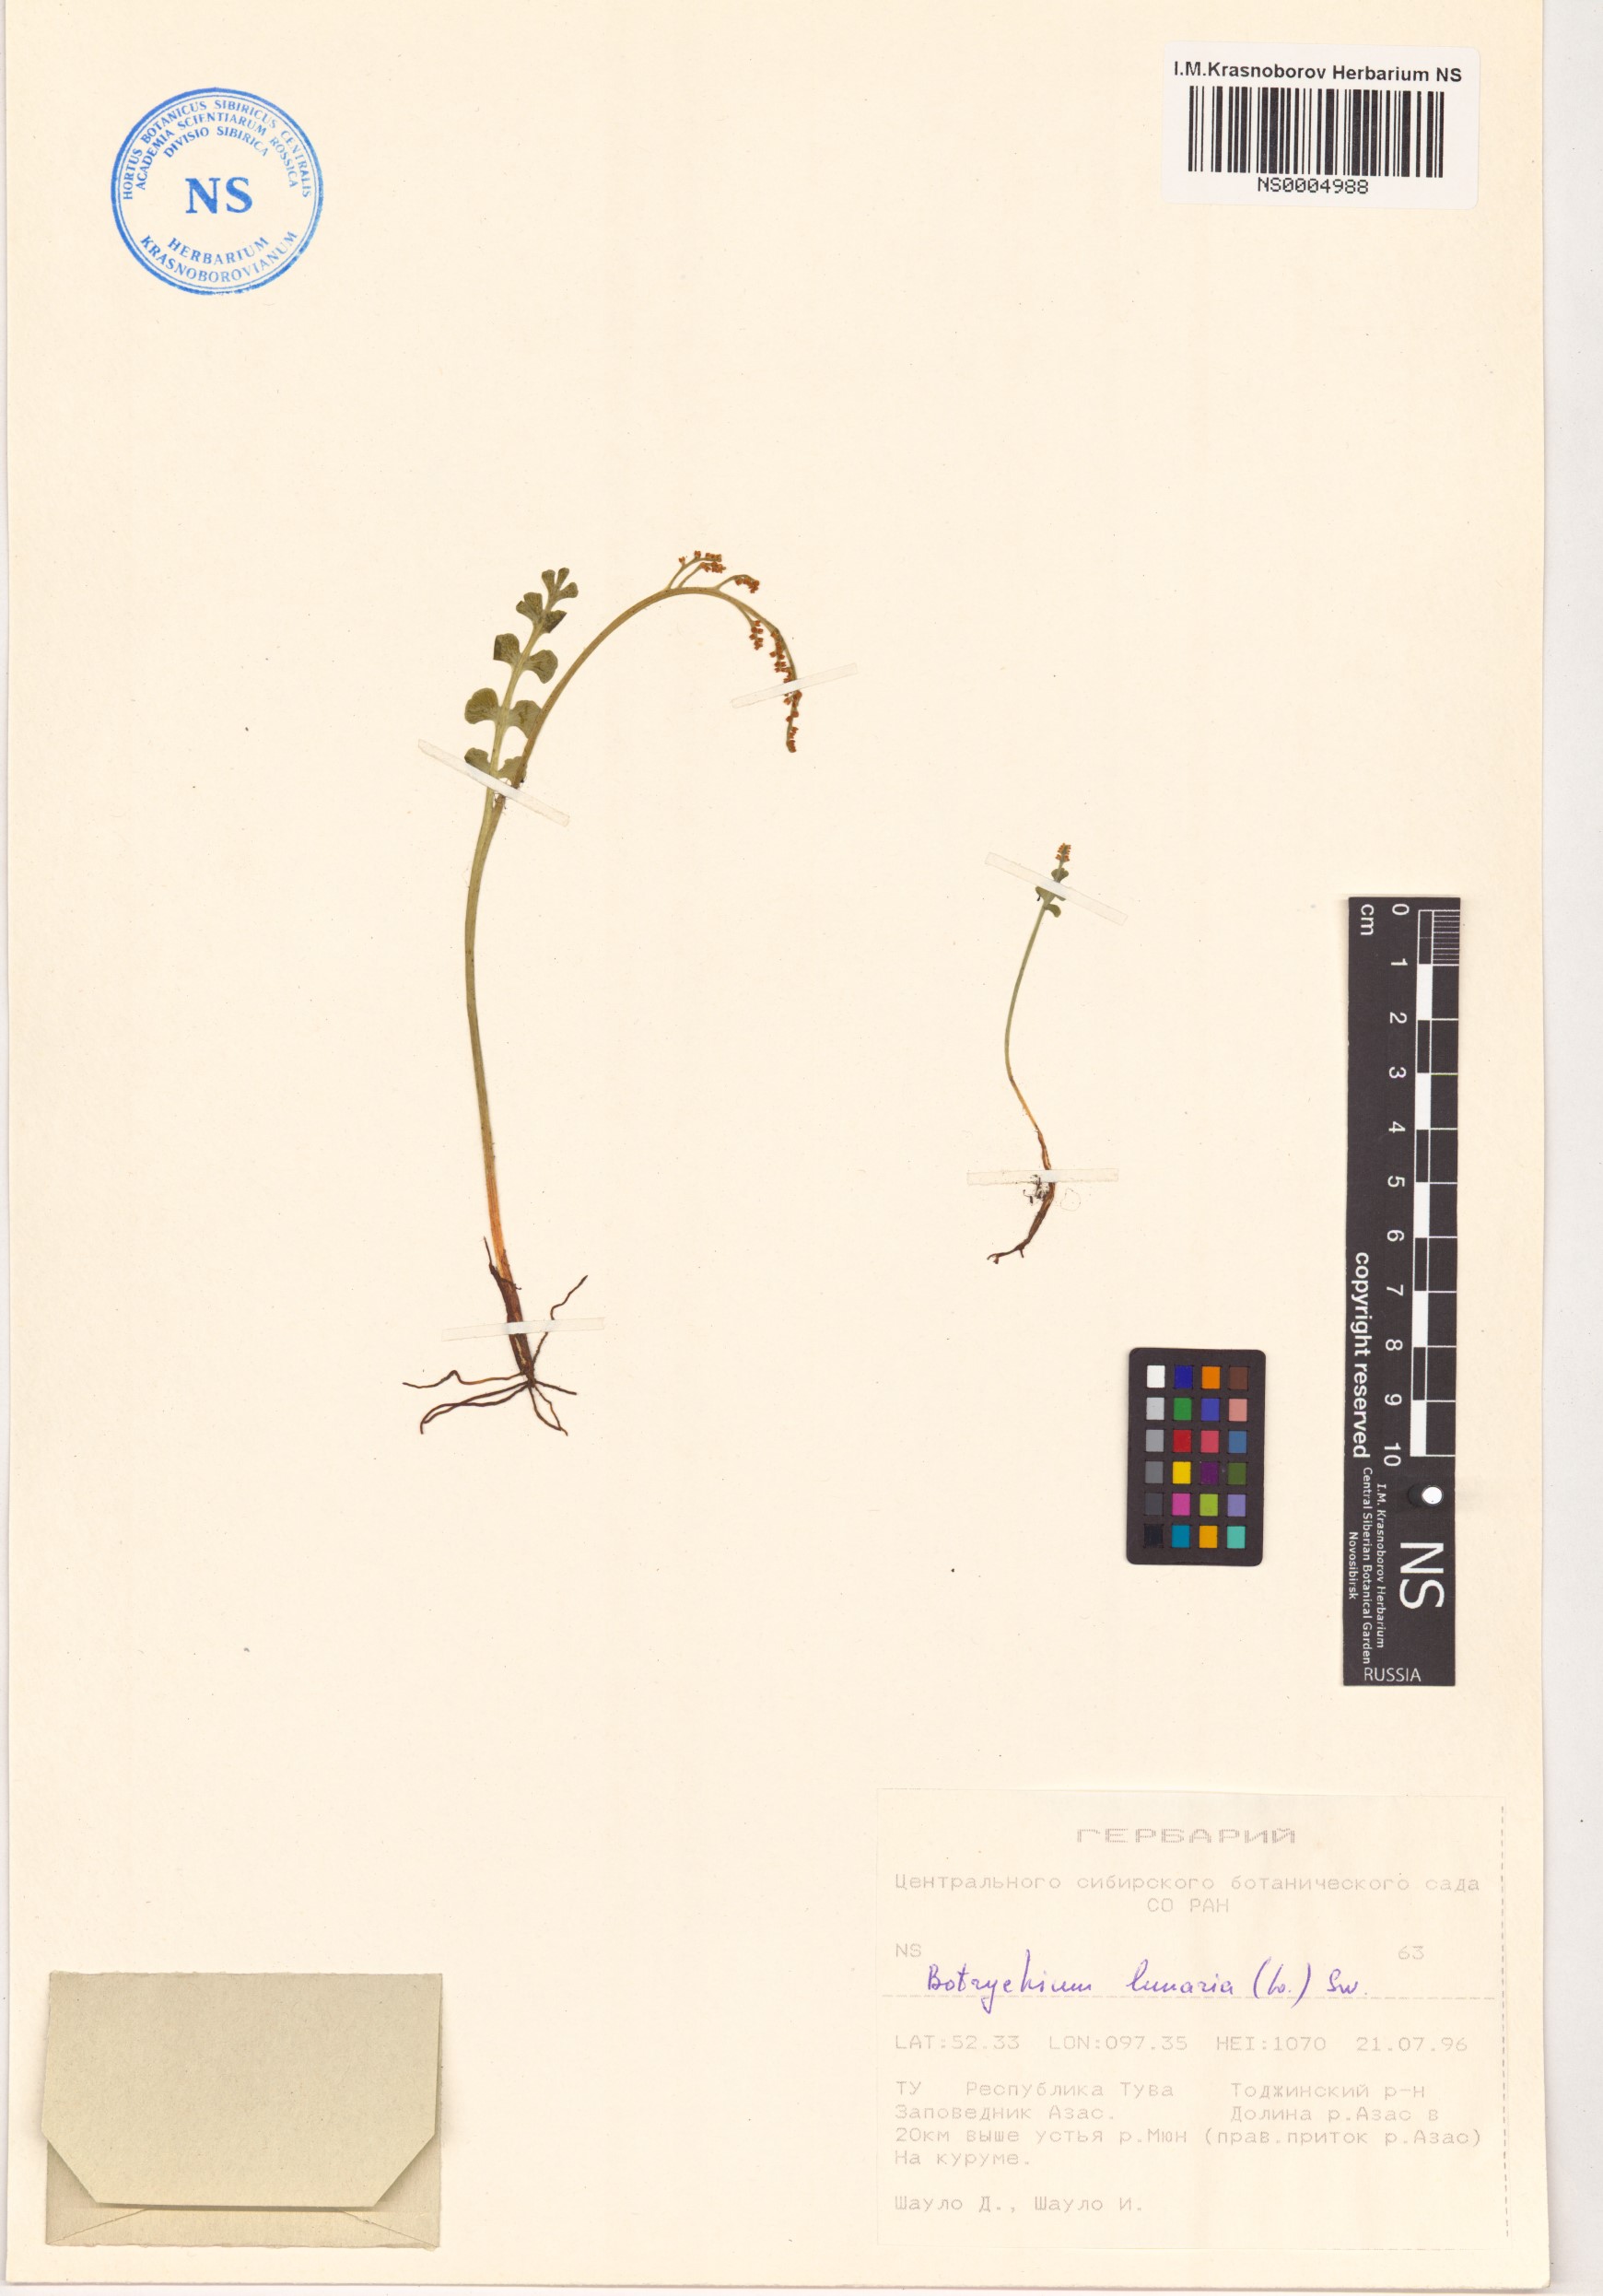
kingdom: Plantae
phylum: Tracheophyta
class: Polypodiopsida
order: Ophioglossales
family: Ophioglossaceae
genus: Botrychium
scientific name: Botrychium lunaria
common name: Moonwort
